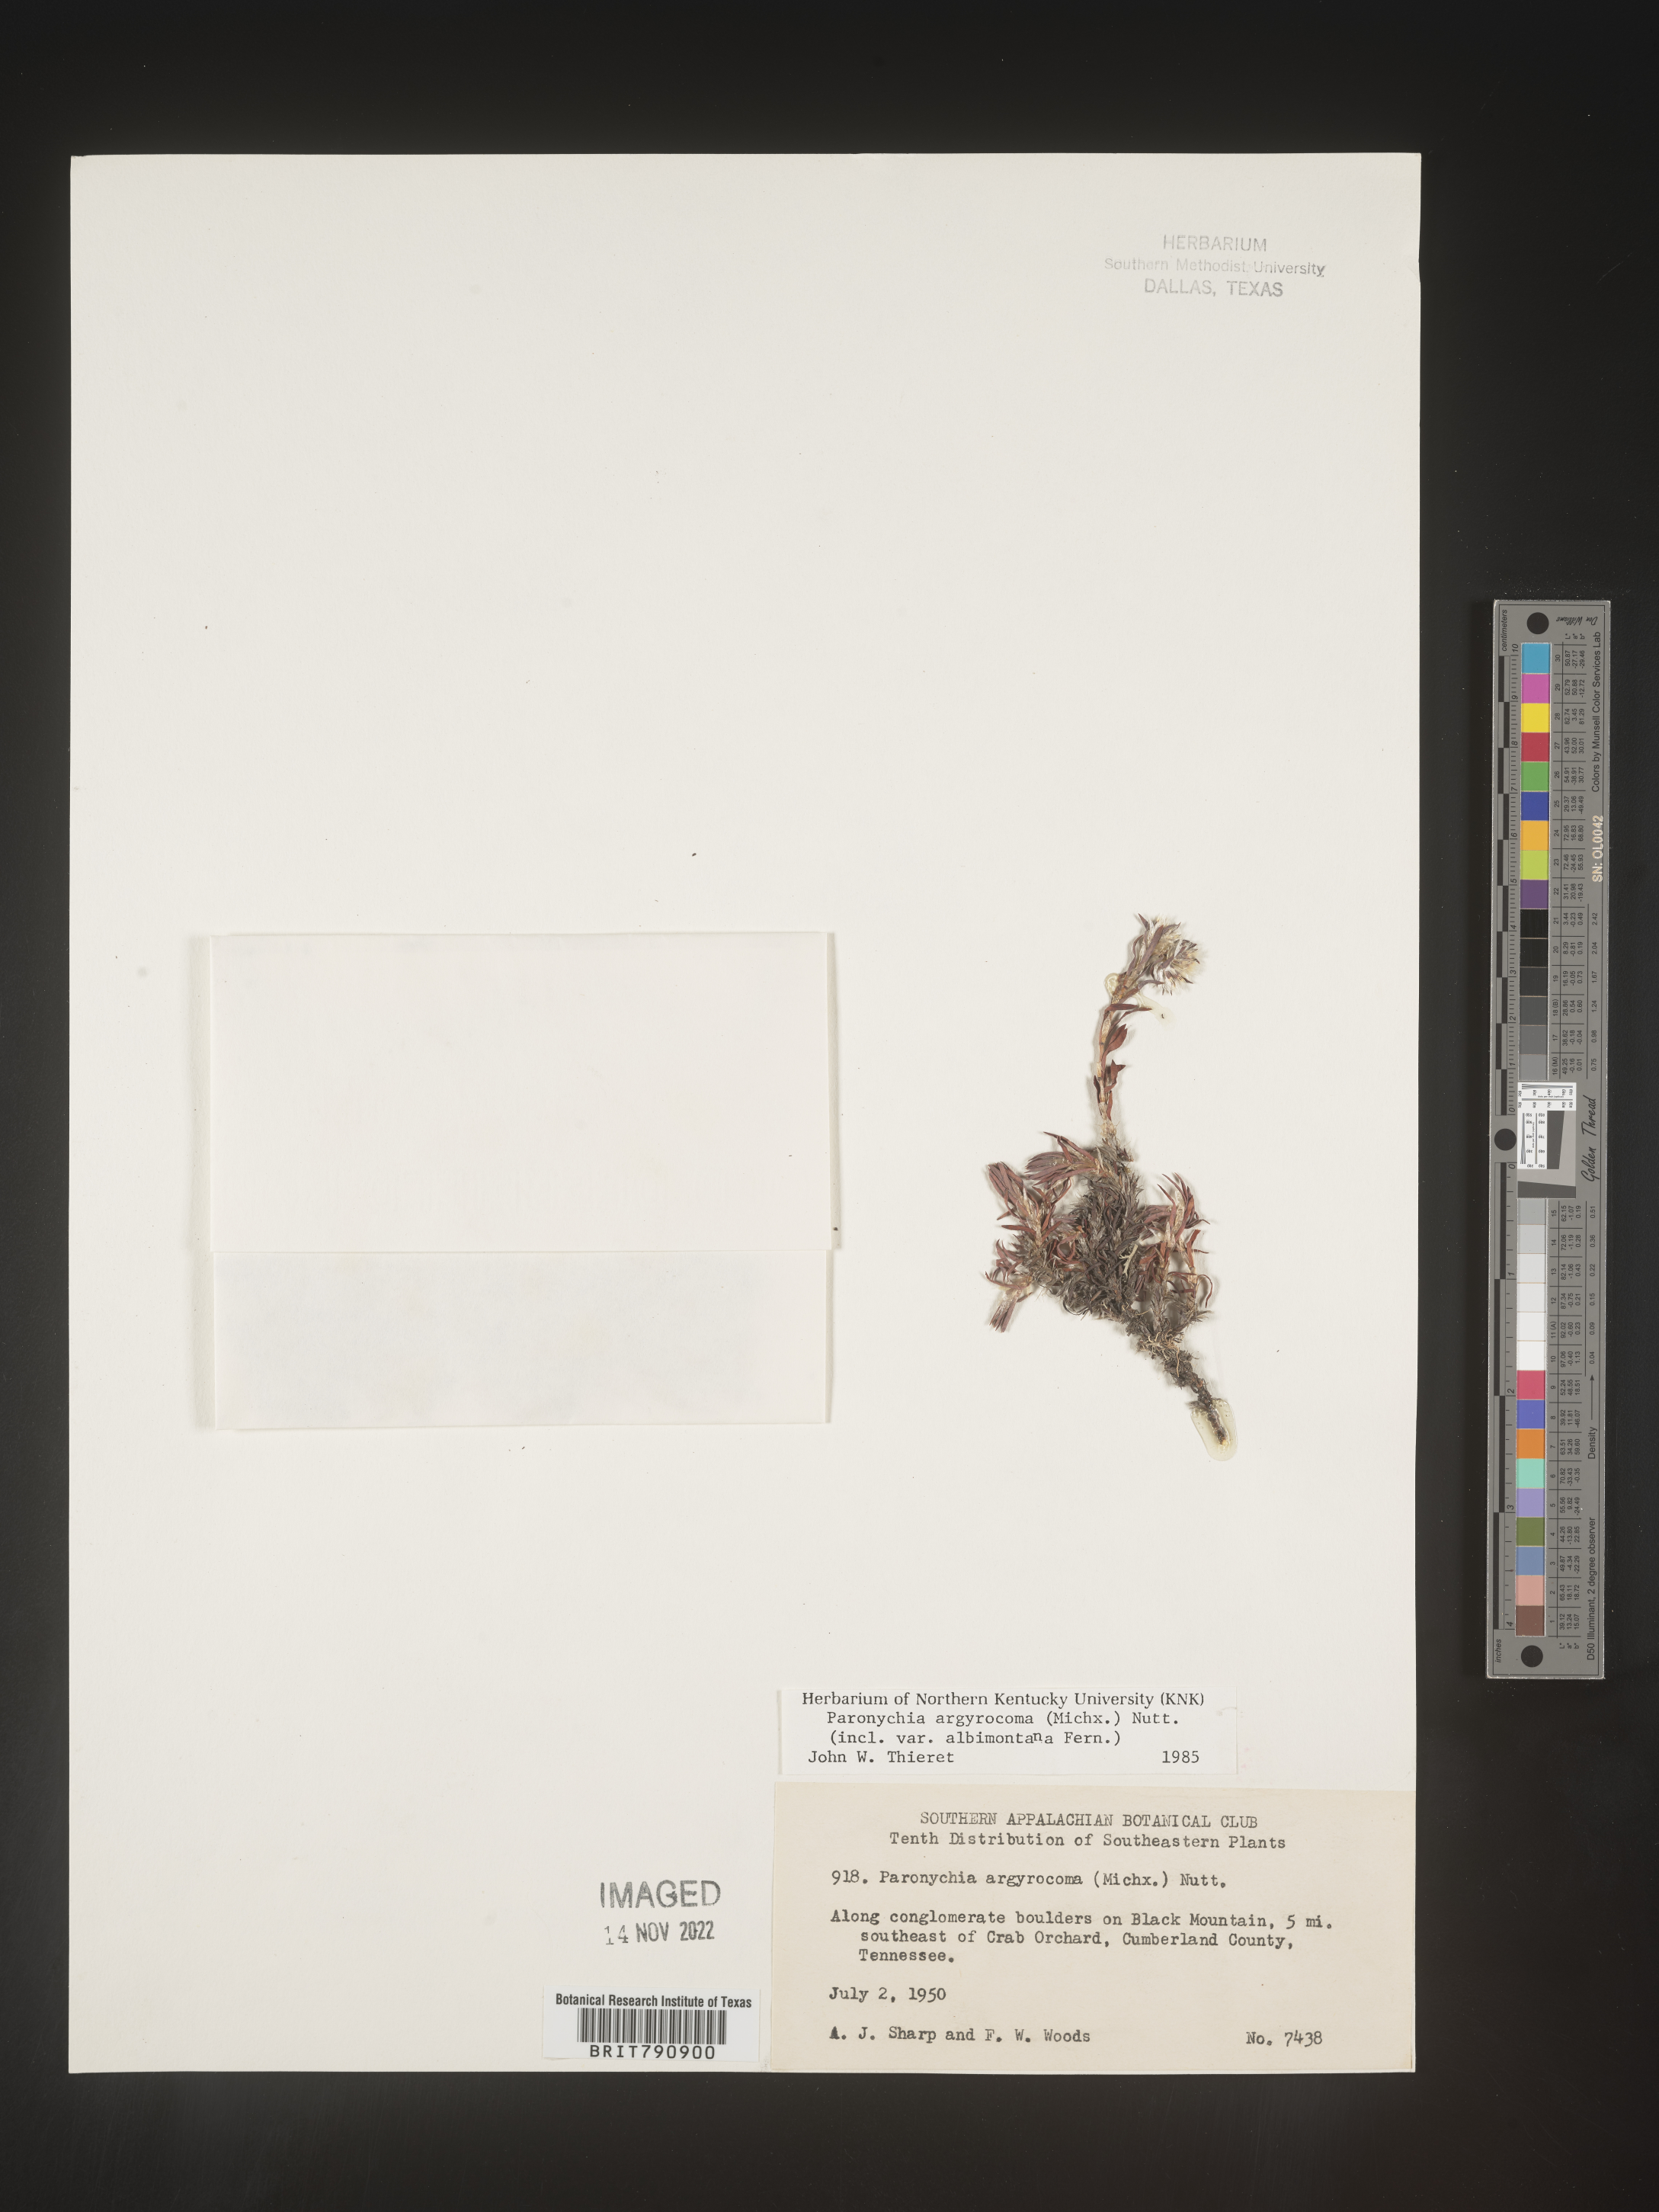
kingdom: Plantae
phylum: Tracheophyta
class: Magnoliopsida
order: Caryophyllales
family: Caryophyllaceae
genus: Paronychia
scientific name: Paronychia argyrocoma
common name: Silverling
